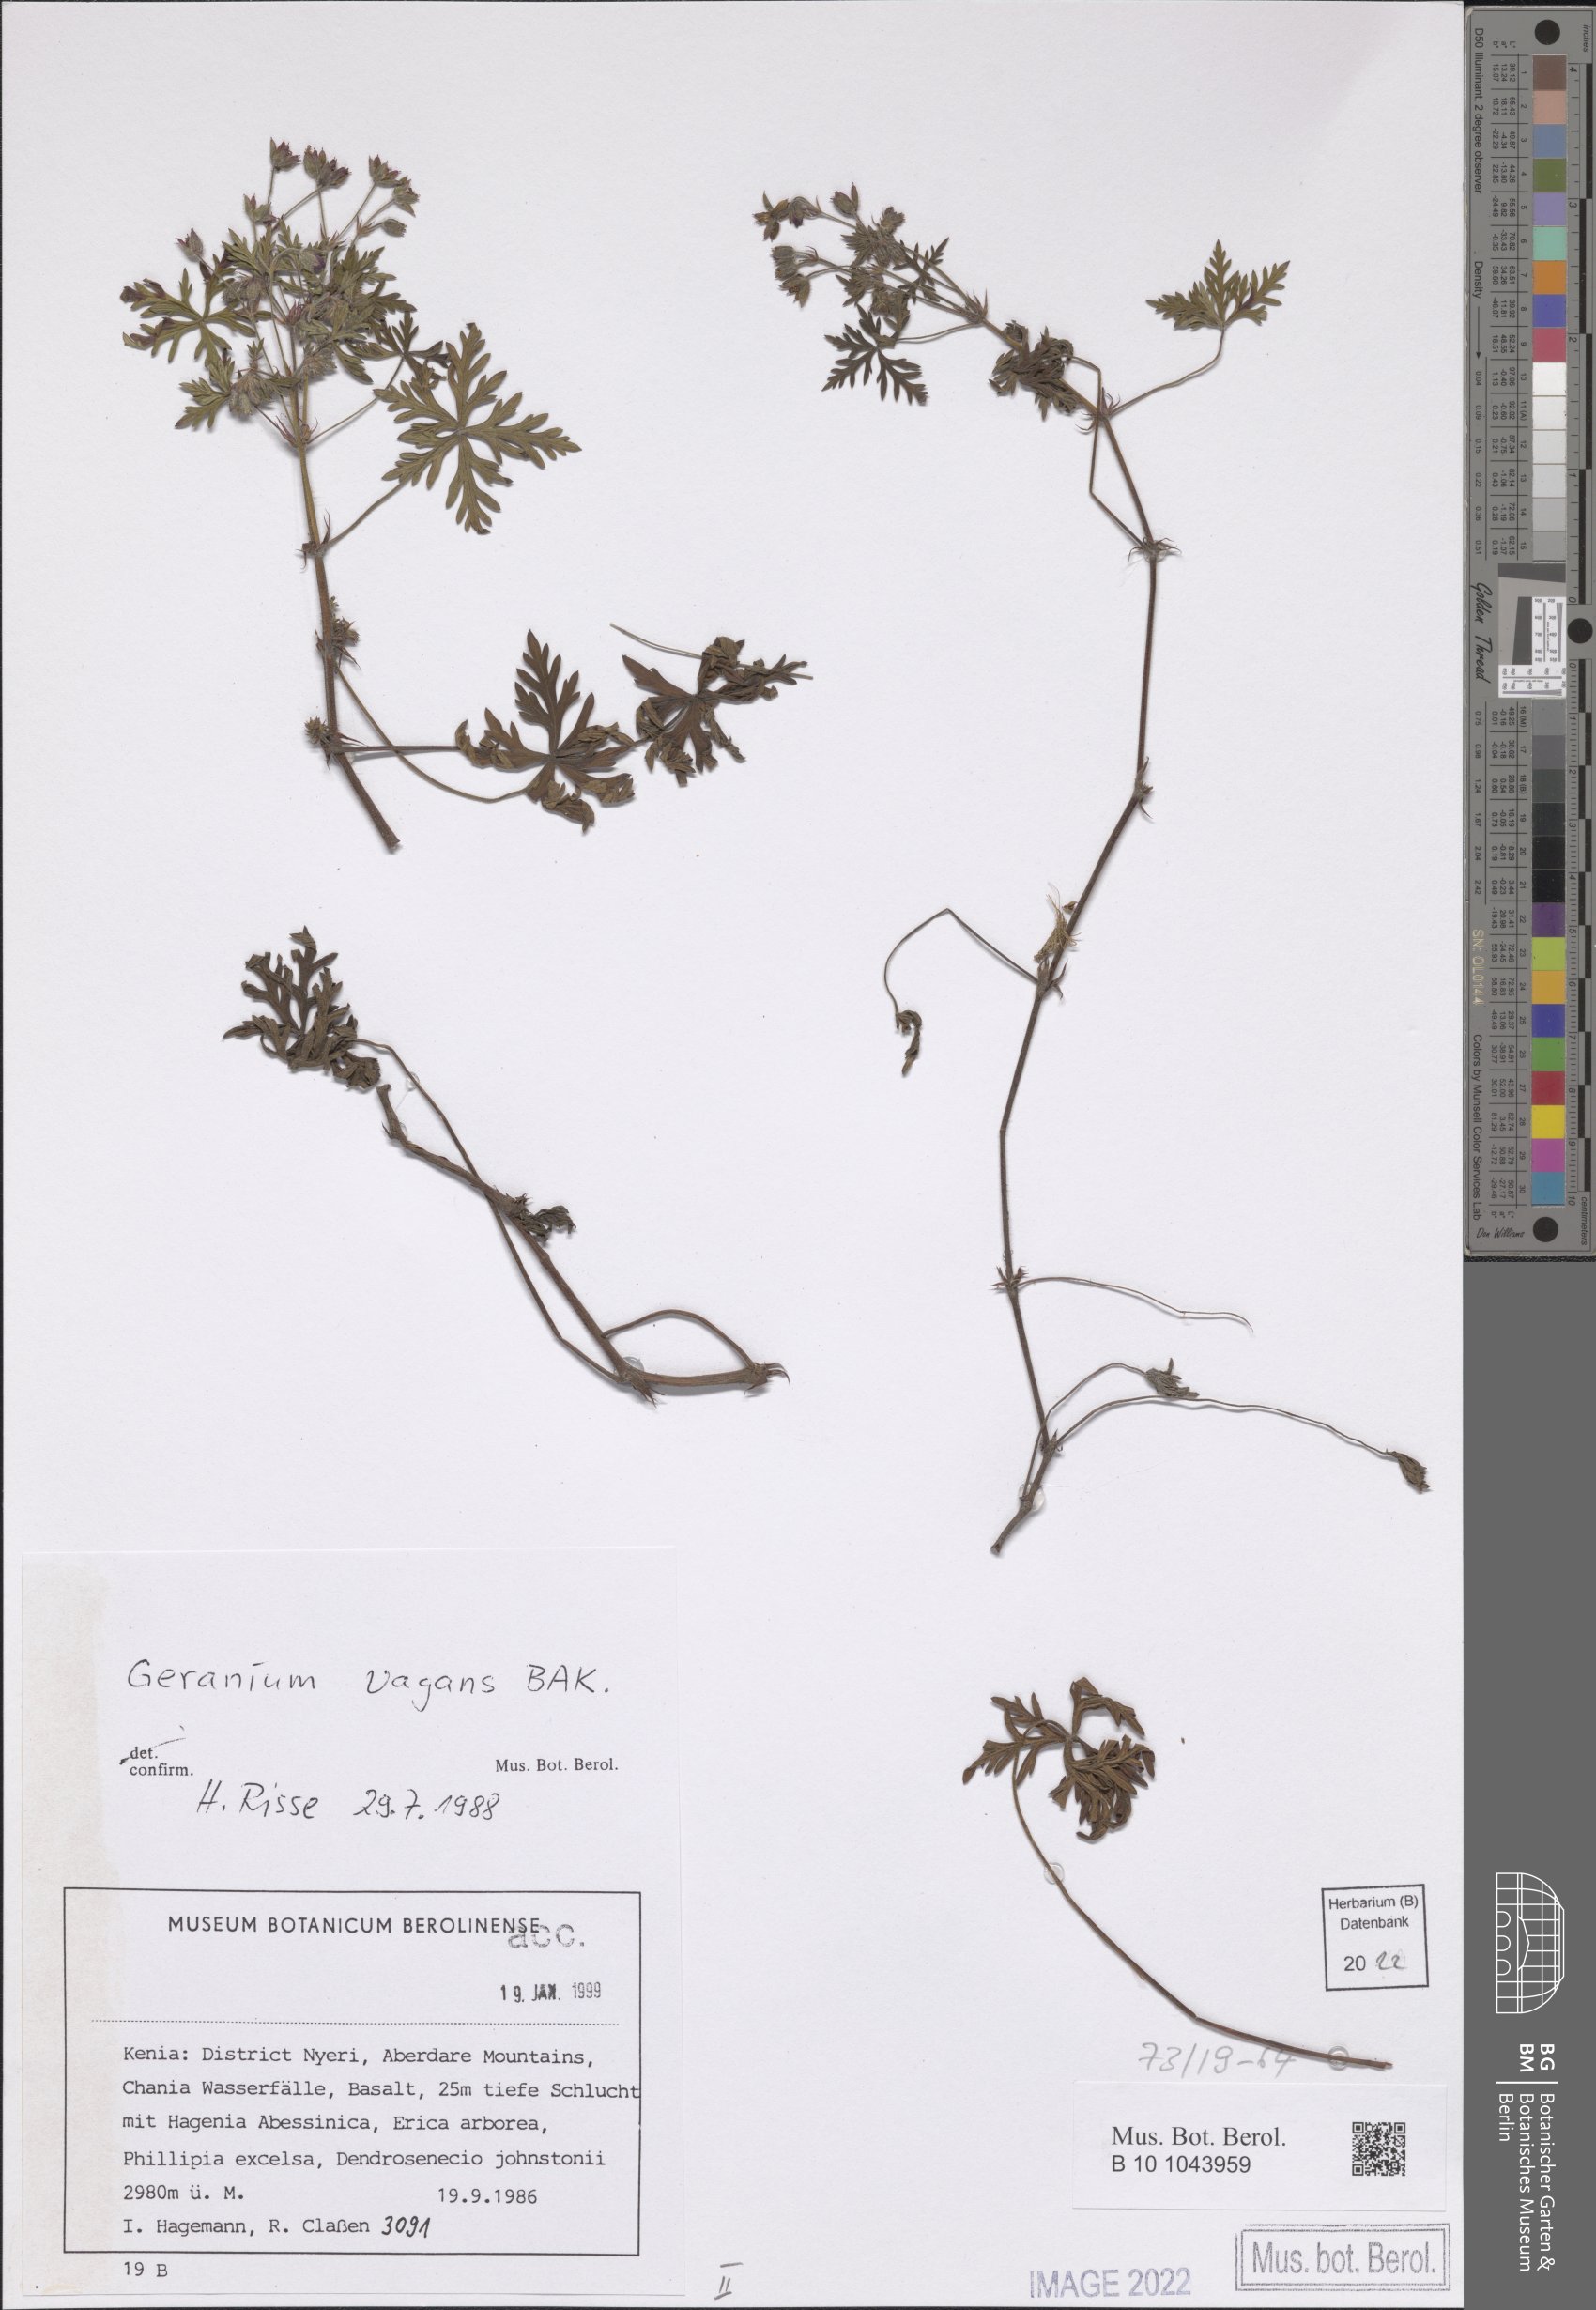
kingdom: Plantae
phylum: Tracheophyta
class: Magnoliopsida
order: Geraniales
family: Geraniaceae
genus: Geranium
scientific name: Geranium vagans
